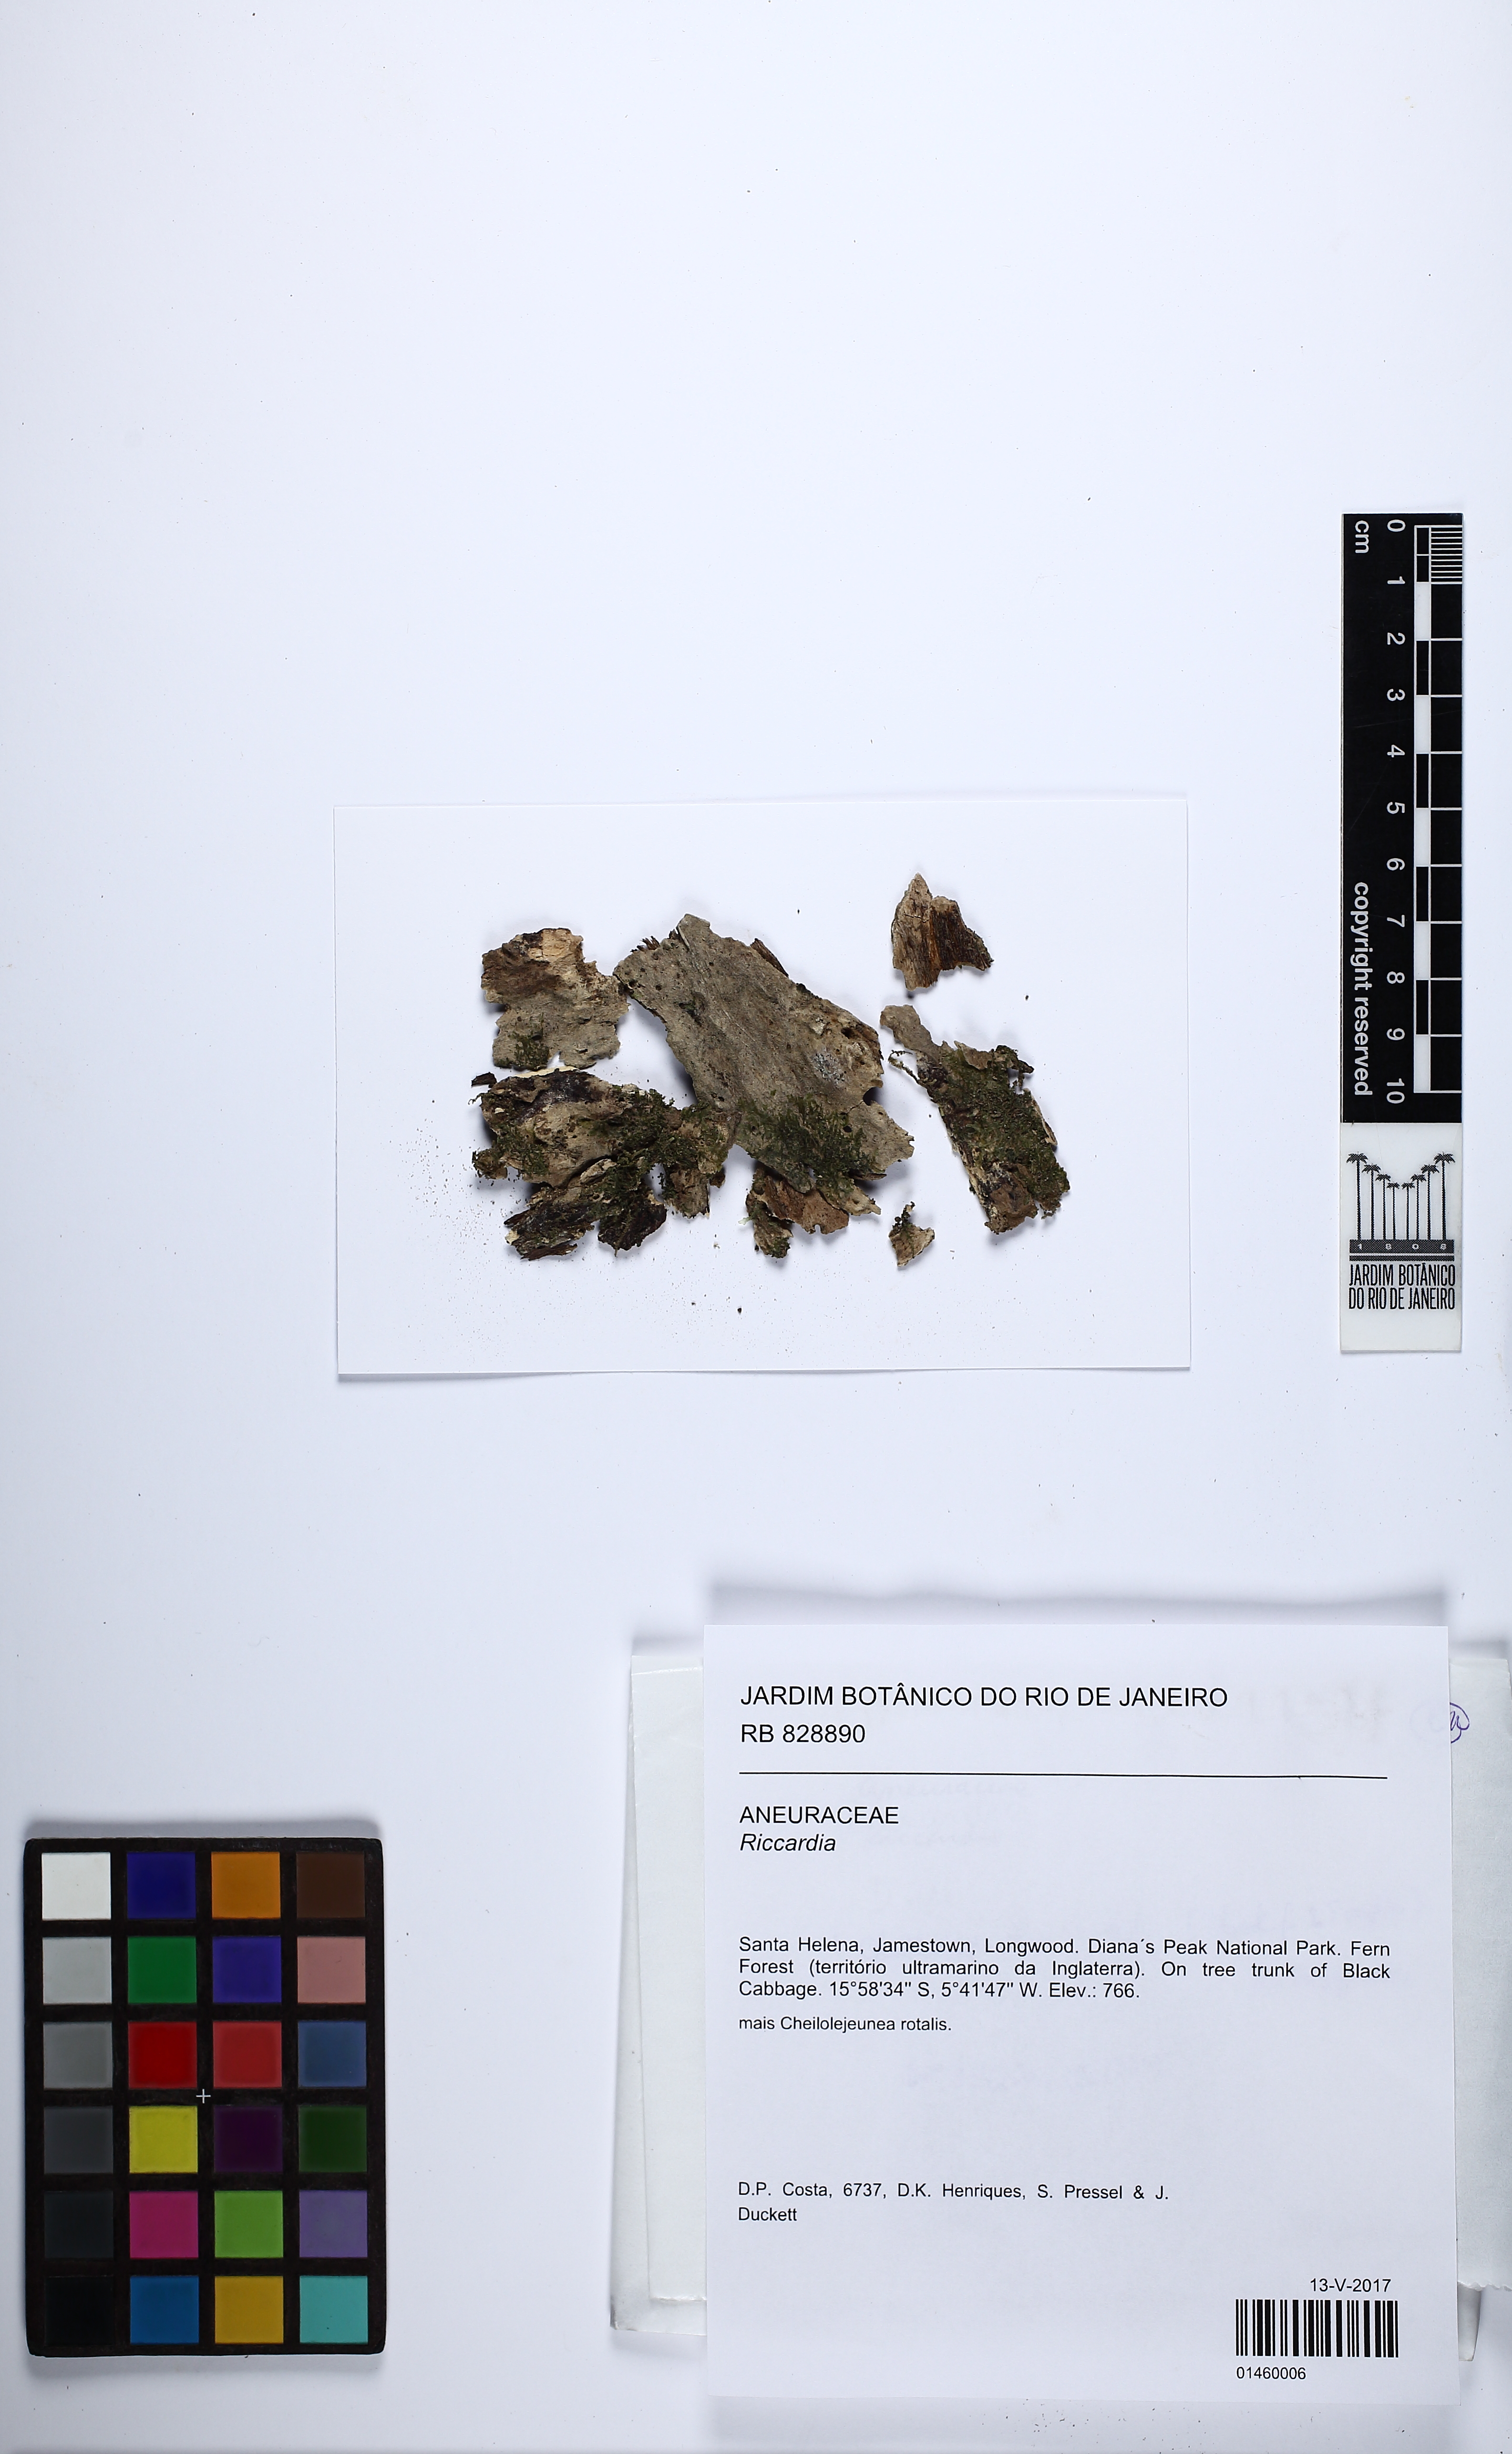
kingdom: Plantae
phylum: Marchantiophyta
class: Jungermanniopsida
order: Metzgeriales
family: Aneuraceae
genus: Riccardia
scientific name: Riccardia
